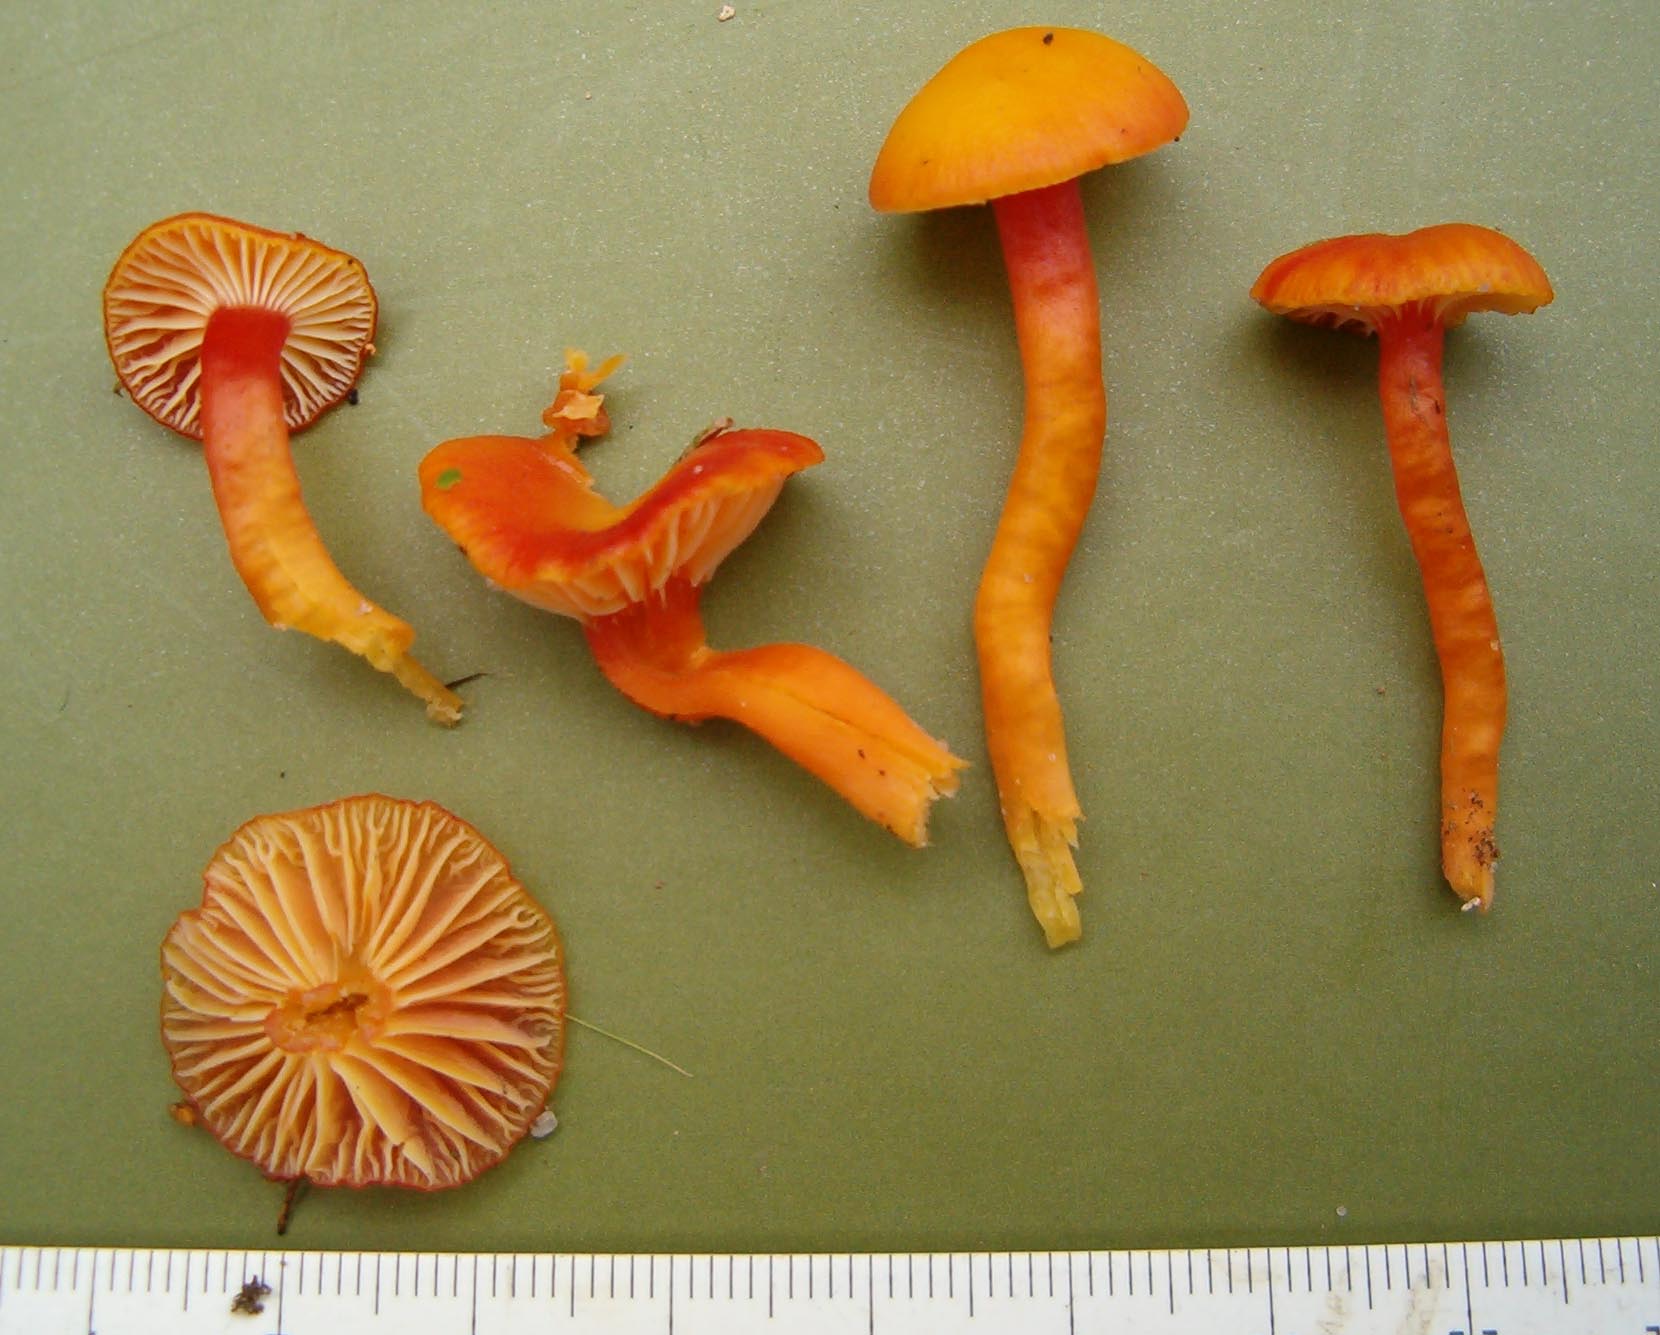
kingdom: Fungi
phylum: Basidiomycota
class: Agaricomycetes
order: Agaricales
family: Hygrophoraceae
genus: Hygrocybe
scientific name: Hygrocybe insipida
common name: liden vokshat
